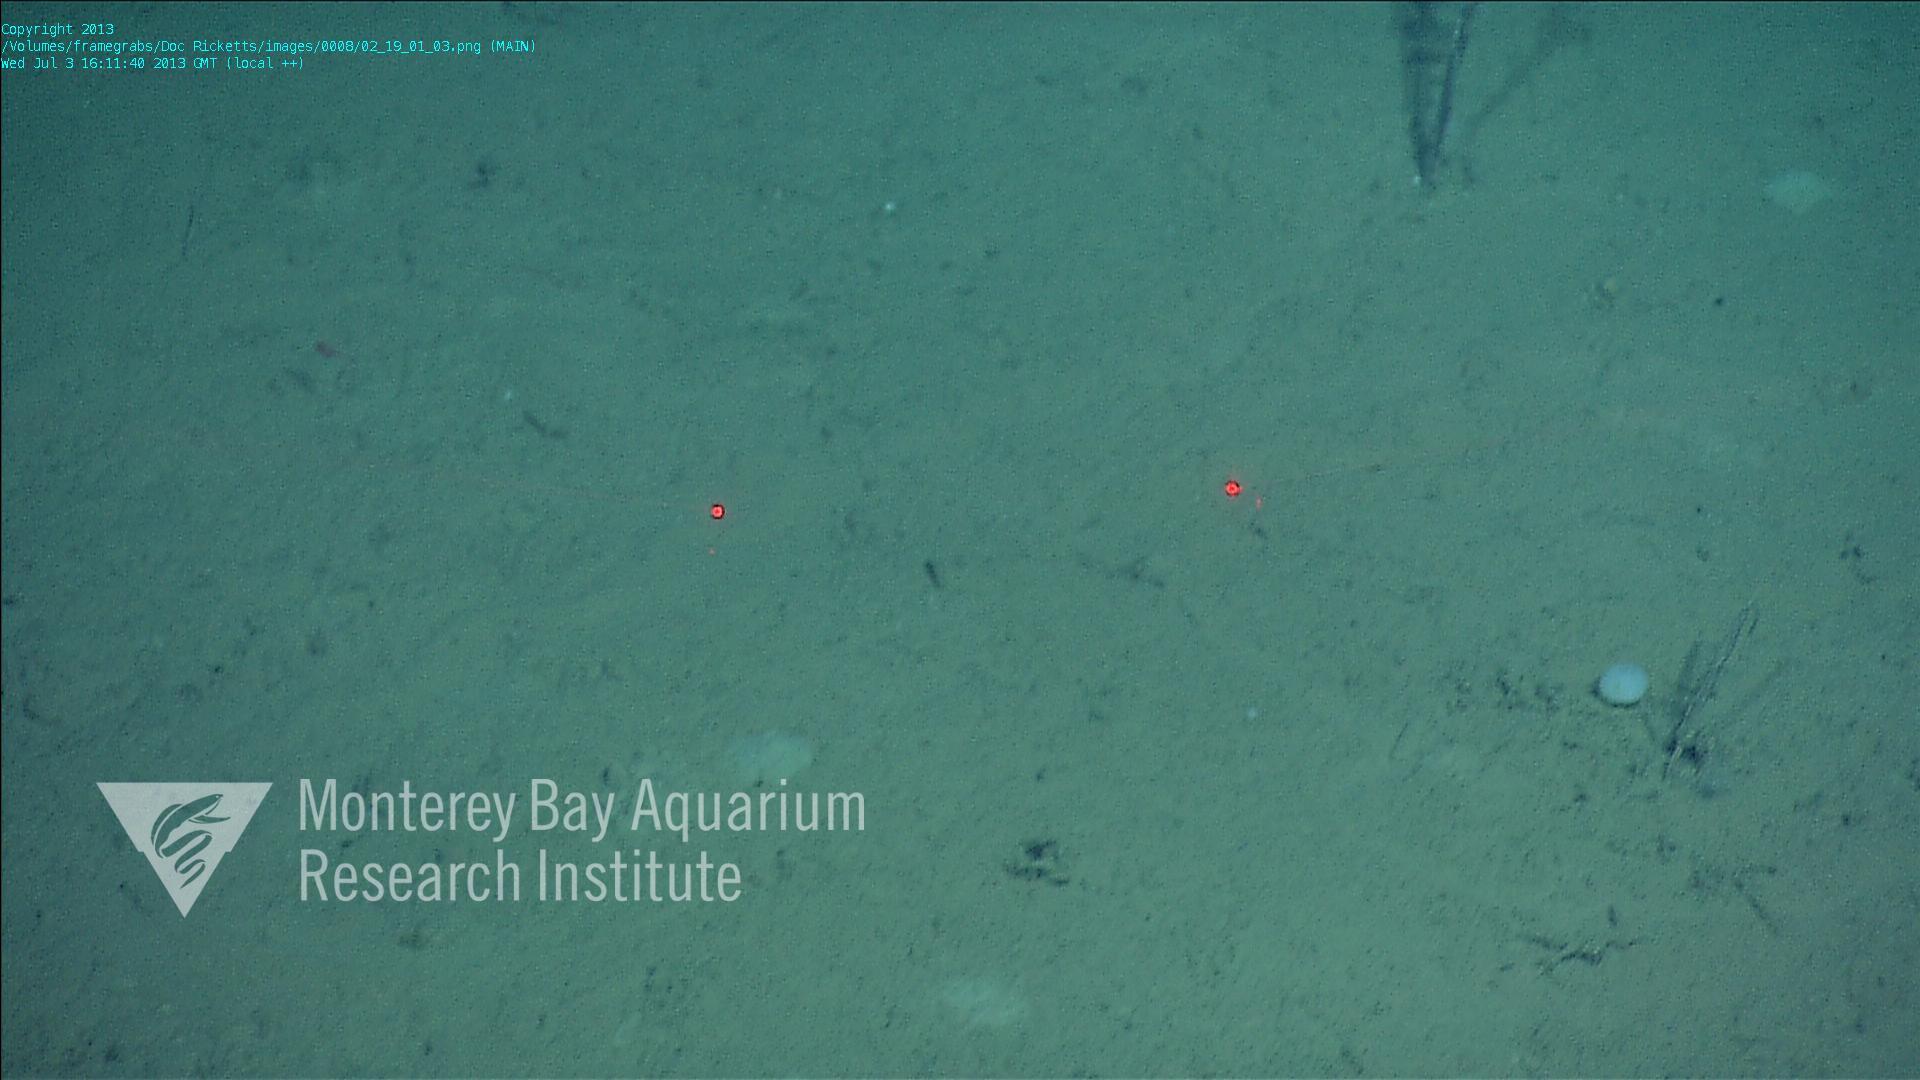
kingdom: Animalia
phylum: Porifera
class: Hexactinellida
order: Lyssacinosida
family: Rossellidae
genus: Bathydorus
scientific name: Bathydorus spinosus
